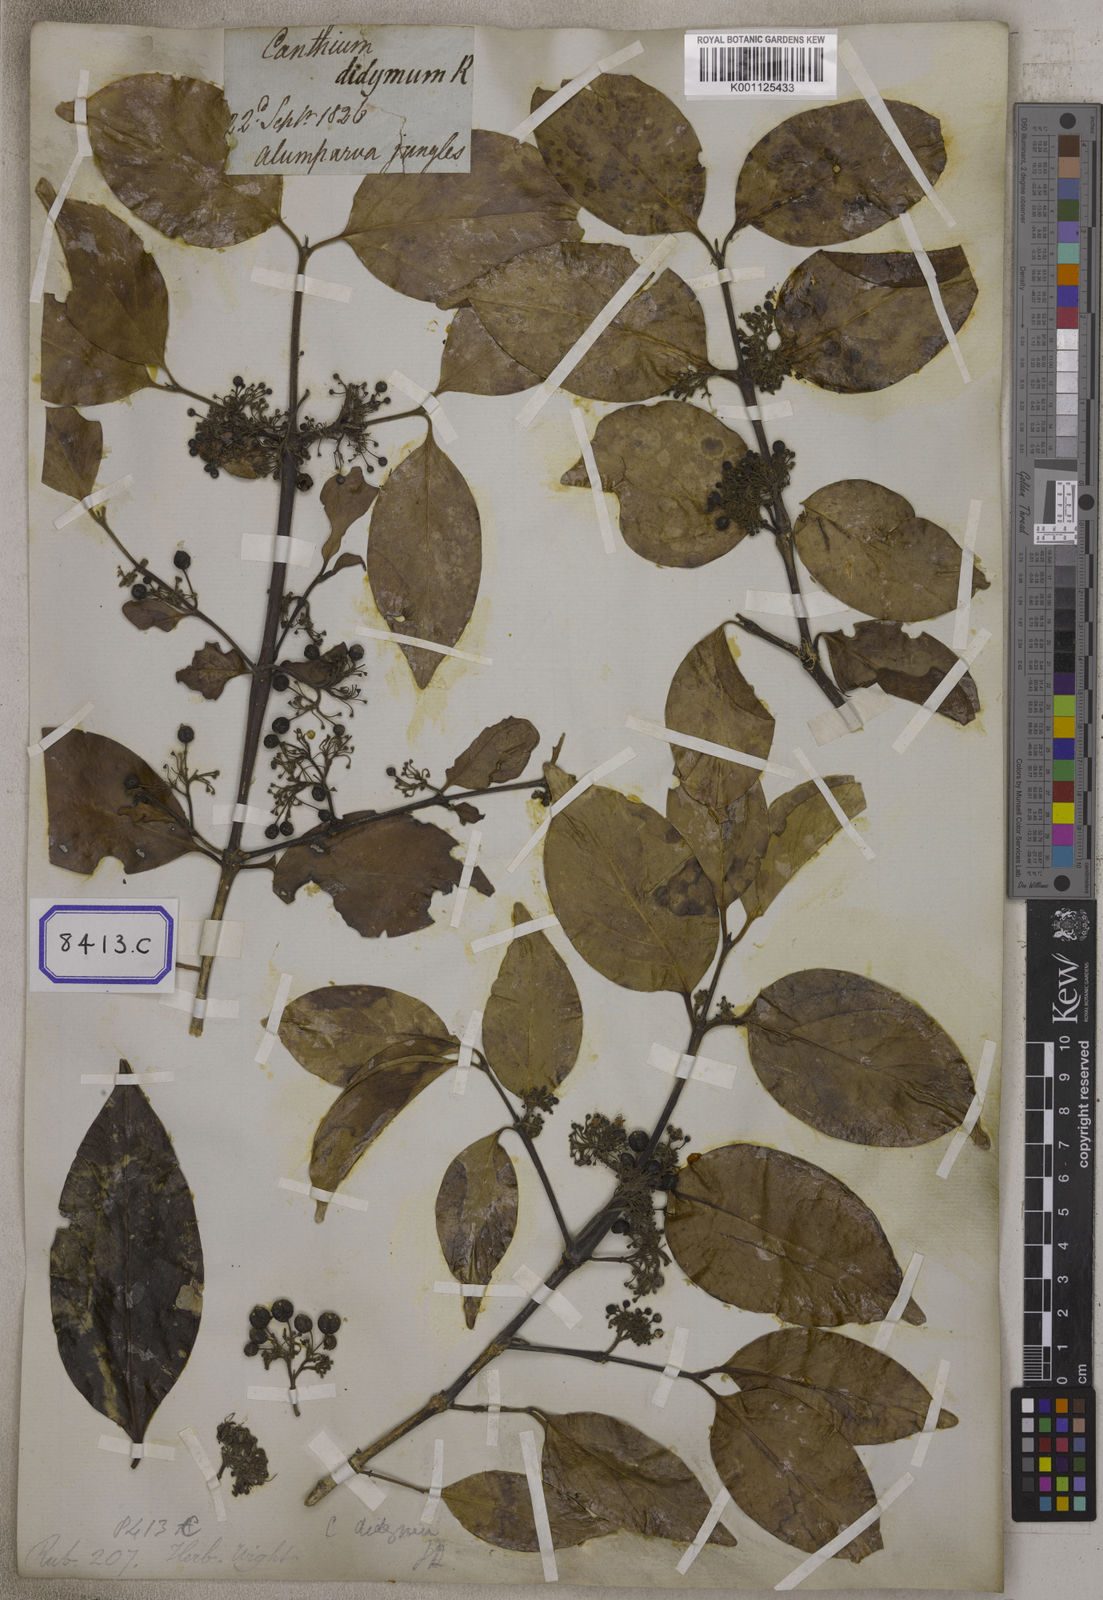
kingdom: Plantae
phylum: Tracheophyta
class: Magnoliopsida
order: Gentianales
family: Rubiaceae
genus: Psydrax
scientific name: Psydrax dicoccos
